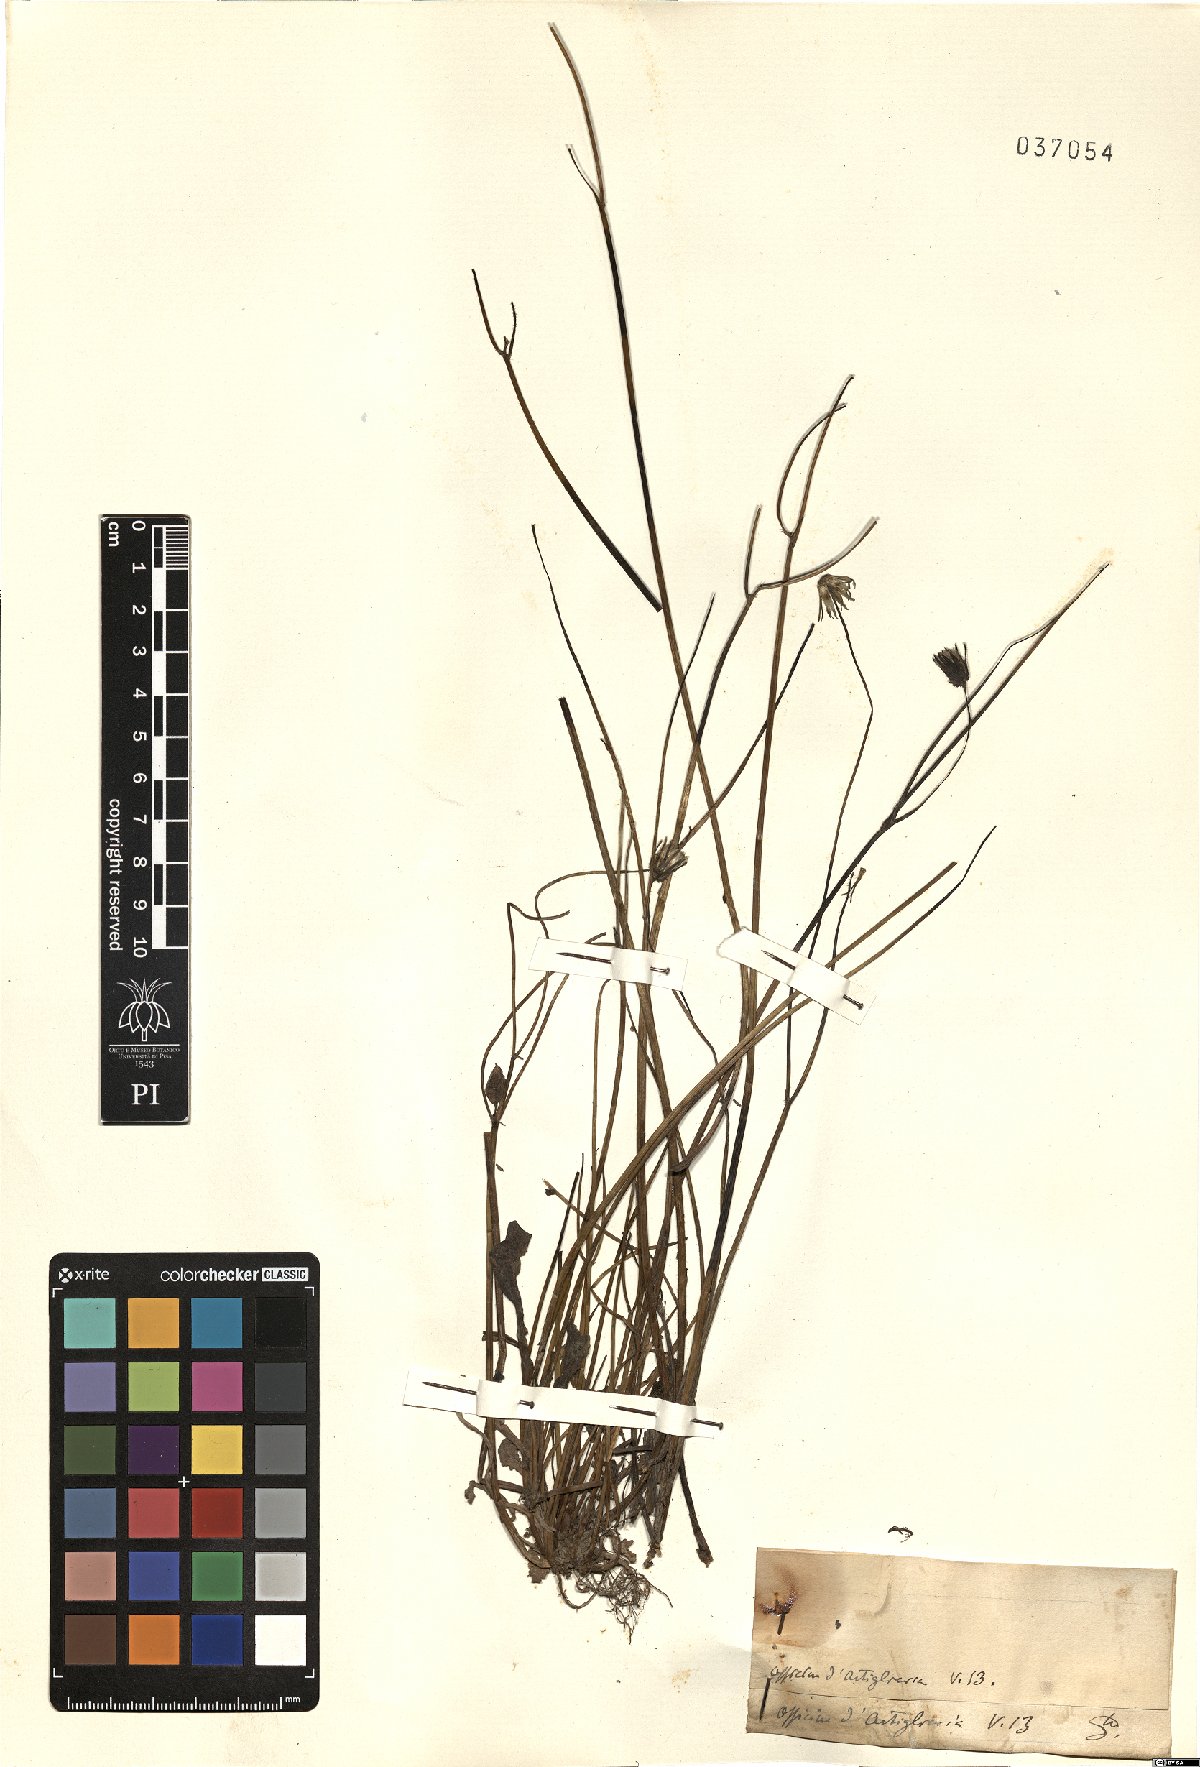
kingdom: Plantae
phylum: Tracheophyta
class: Magnoliopsida
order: Asterales
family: Asteraceae
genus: Podolepis
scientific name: Podolepis
